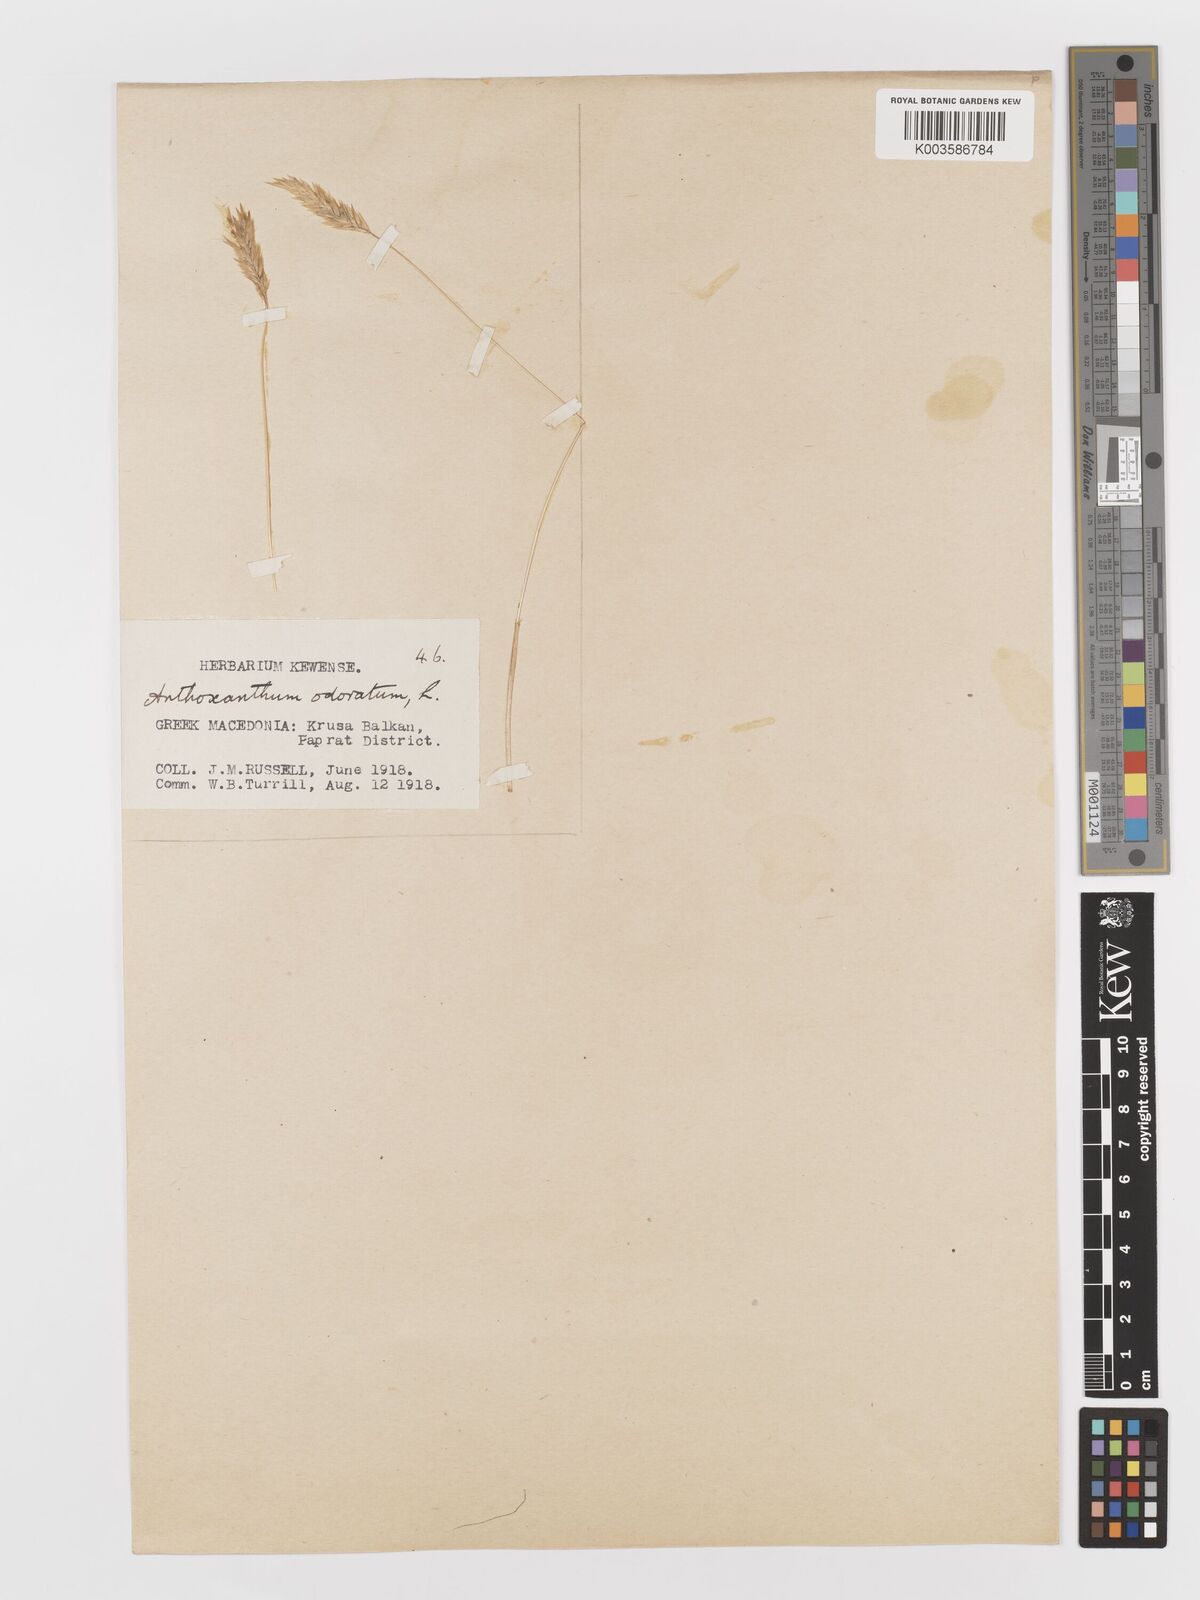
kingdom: Plantae
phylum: Tracheophyta
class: Liliopsida
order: Poales
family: Poaceae
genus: Anthoxanthum
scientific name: Anthoxanthum odoratum
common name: Sweet vernalgrass
